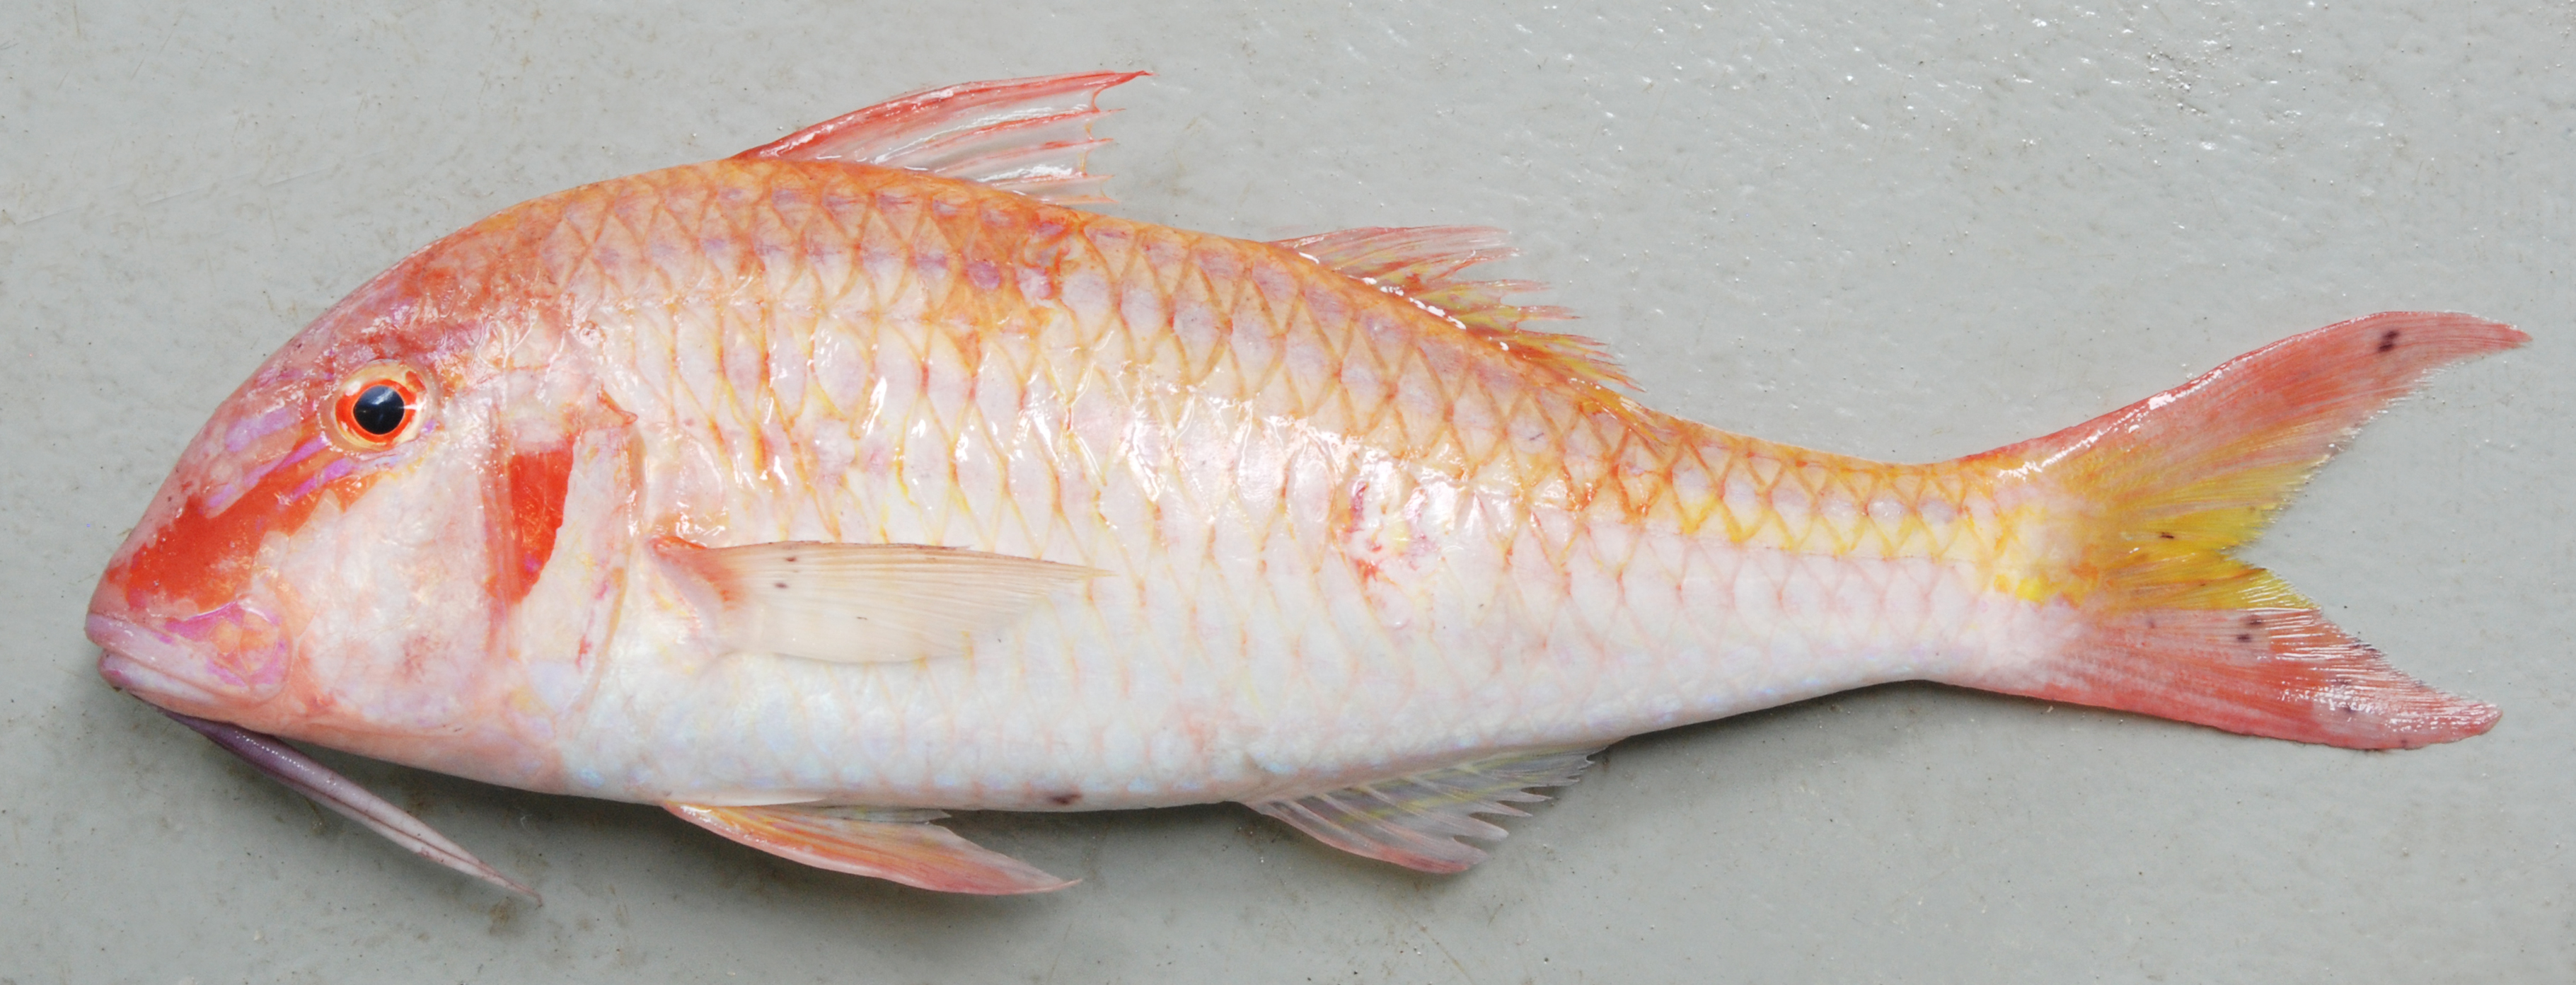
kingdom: Animalia
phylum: Chordata
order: Perciformes
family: Mullidae
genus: Parupeneus
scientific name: Parupeneus
